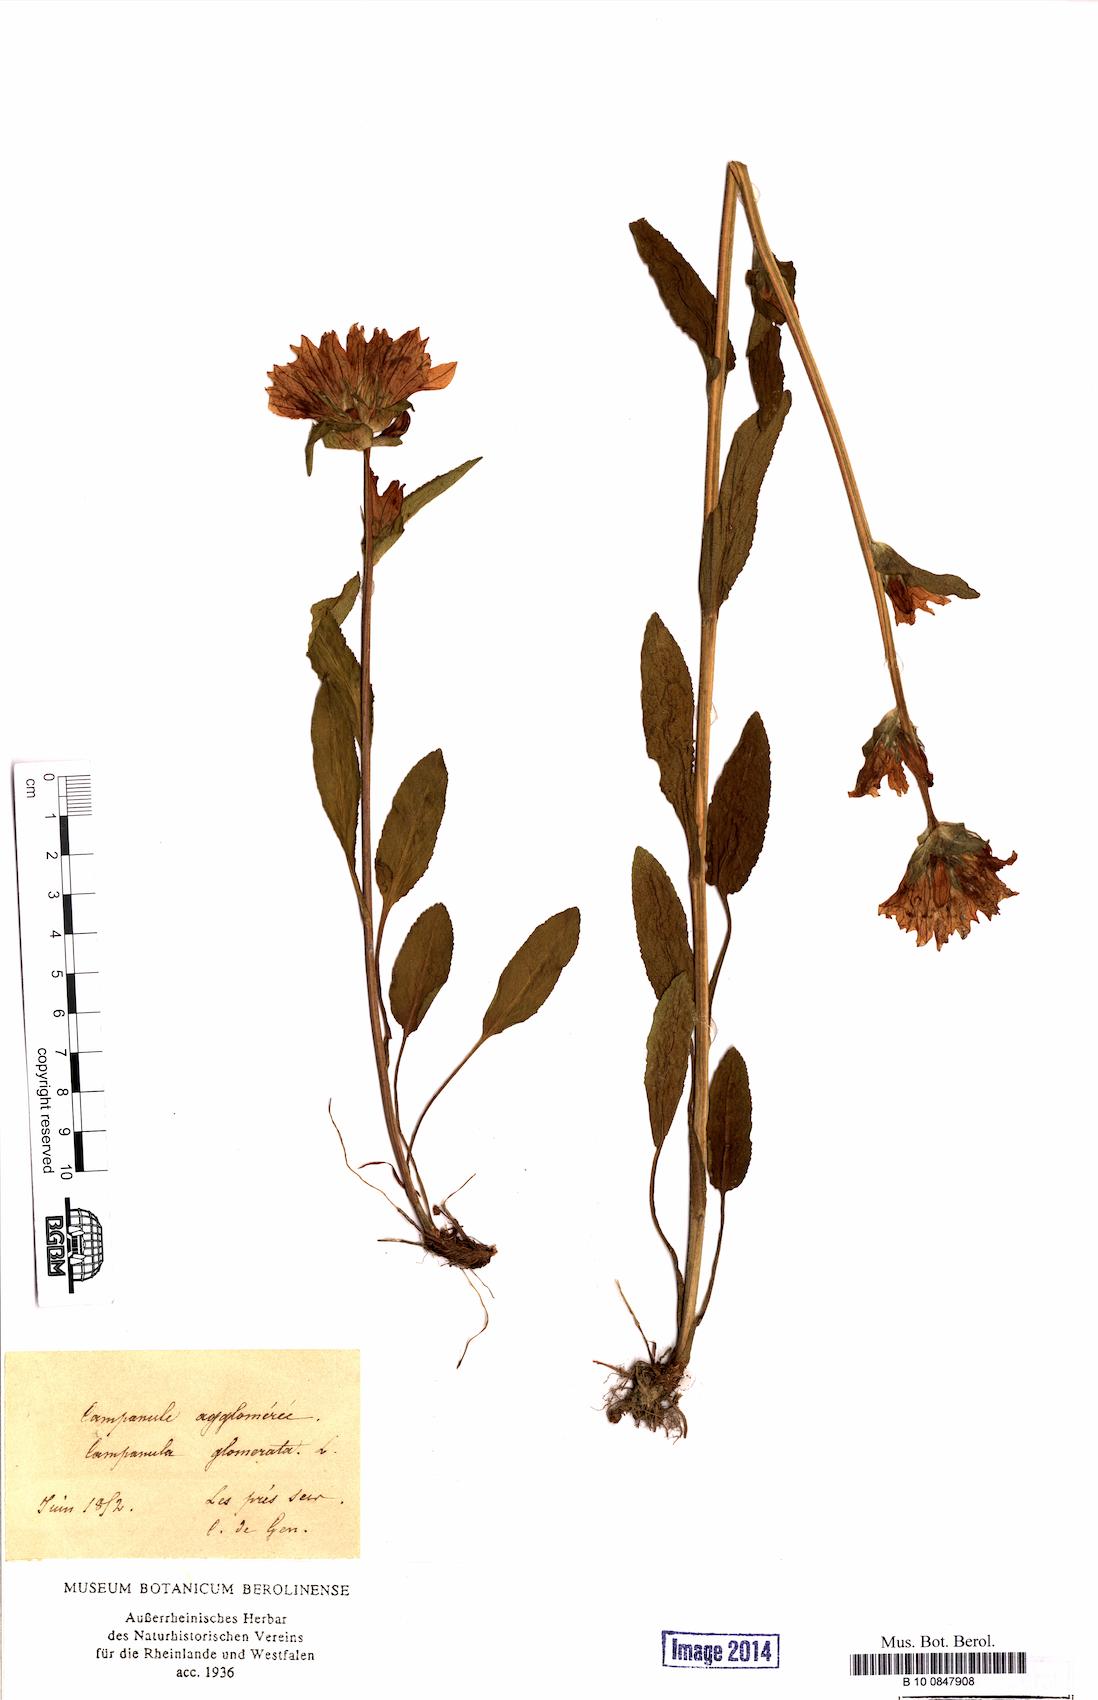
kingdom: Plantae
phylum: Tracheophyta
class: Magnoliopsida
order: Asterales
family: Campanulaceae
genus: Campanula
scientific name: Campanula glomerata
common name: Clustered bellflower
